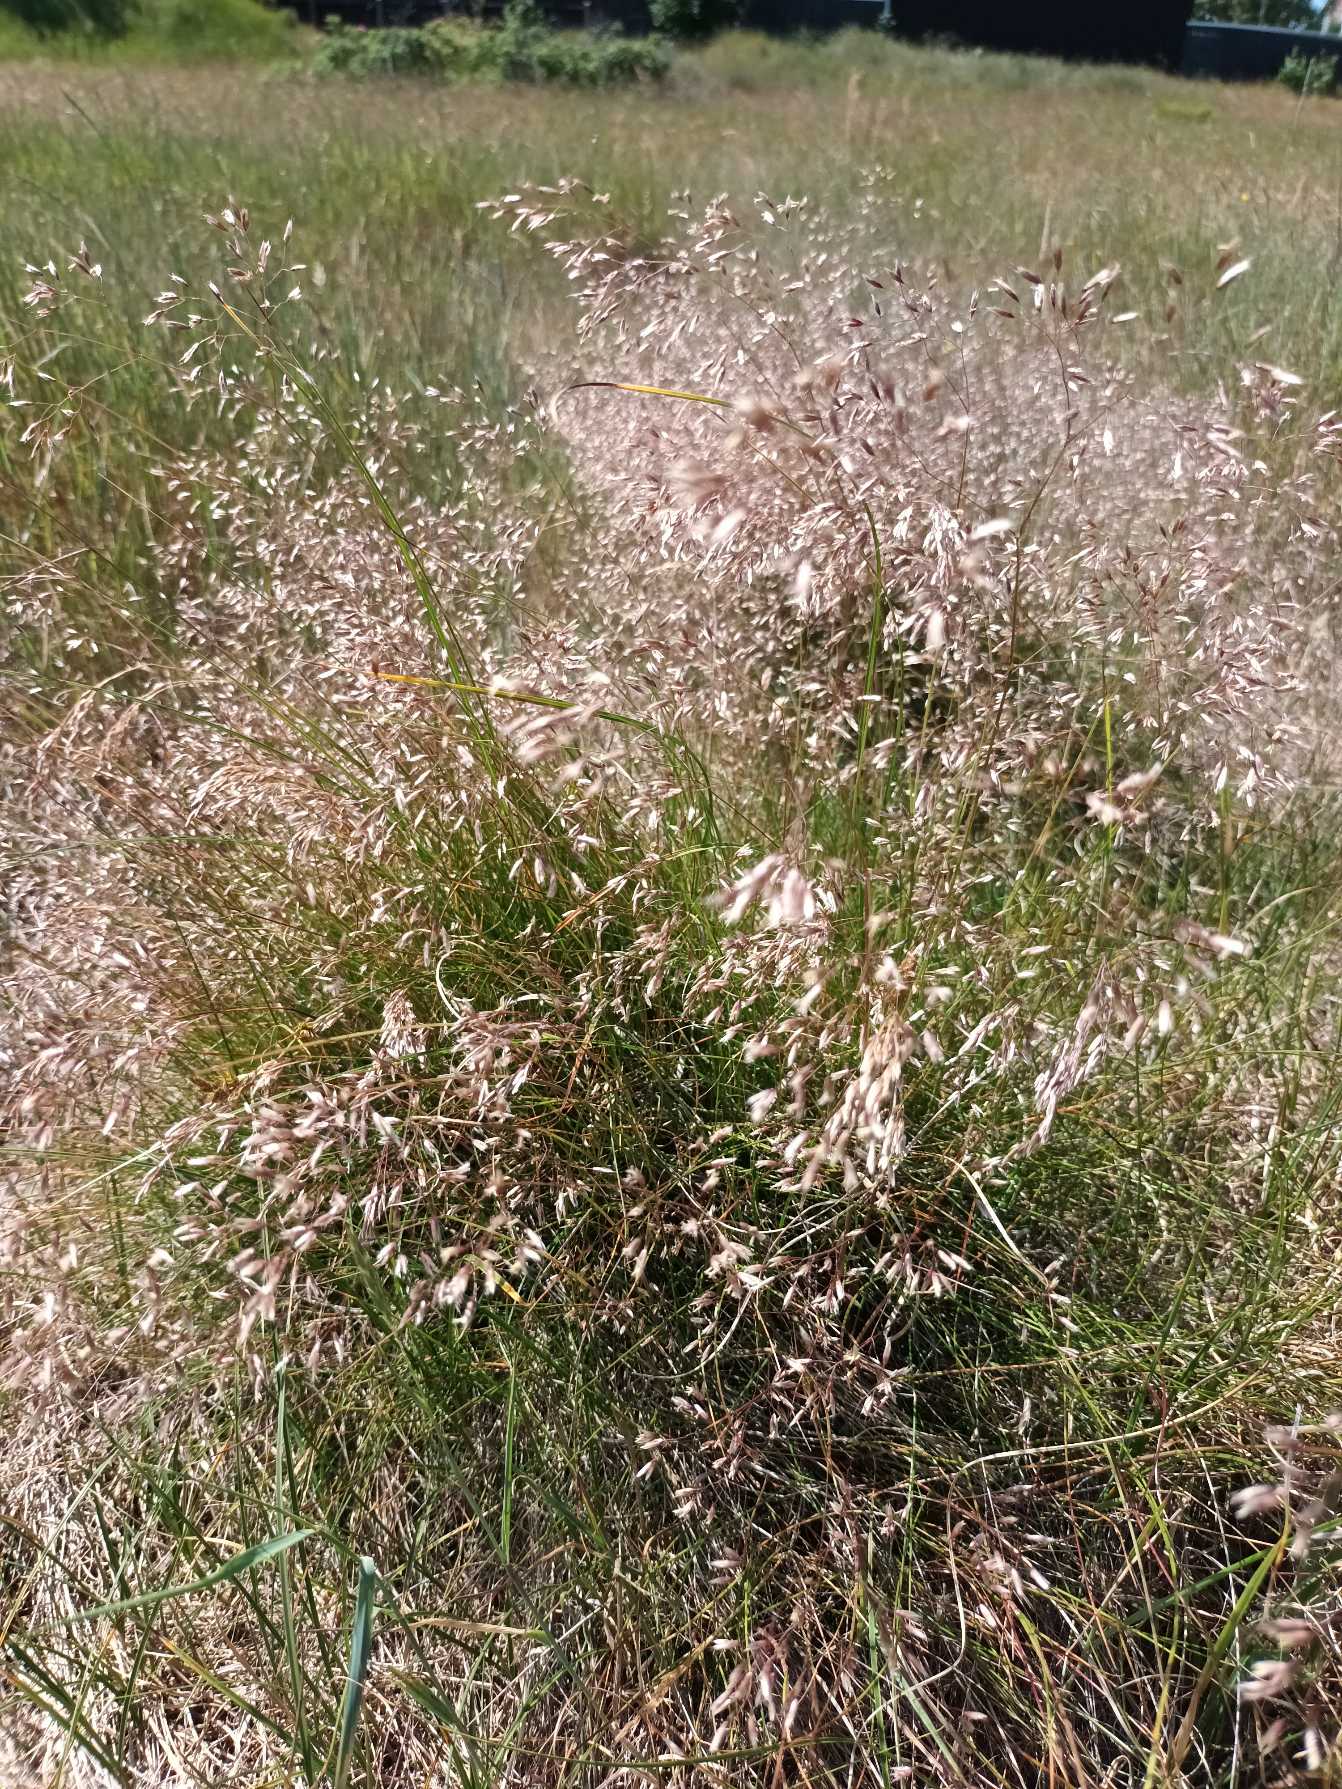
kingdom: Plantae
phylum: Tracheophyta
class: Liliopsida
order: Poales
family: Poaceae
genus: Avenella
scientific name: Avenella flexuosa
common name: Bølget bunke
